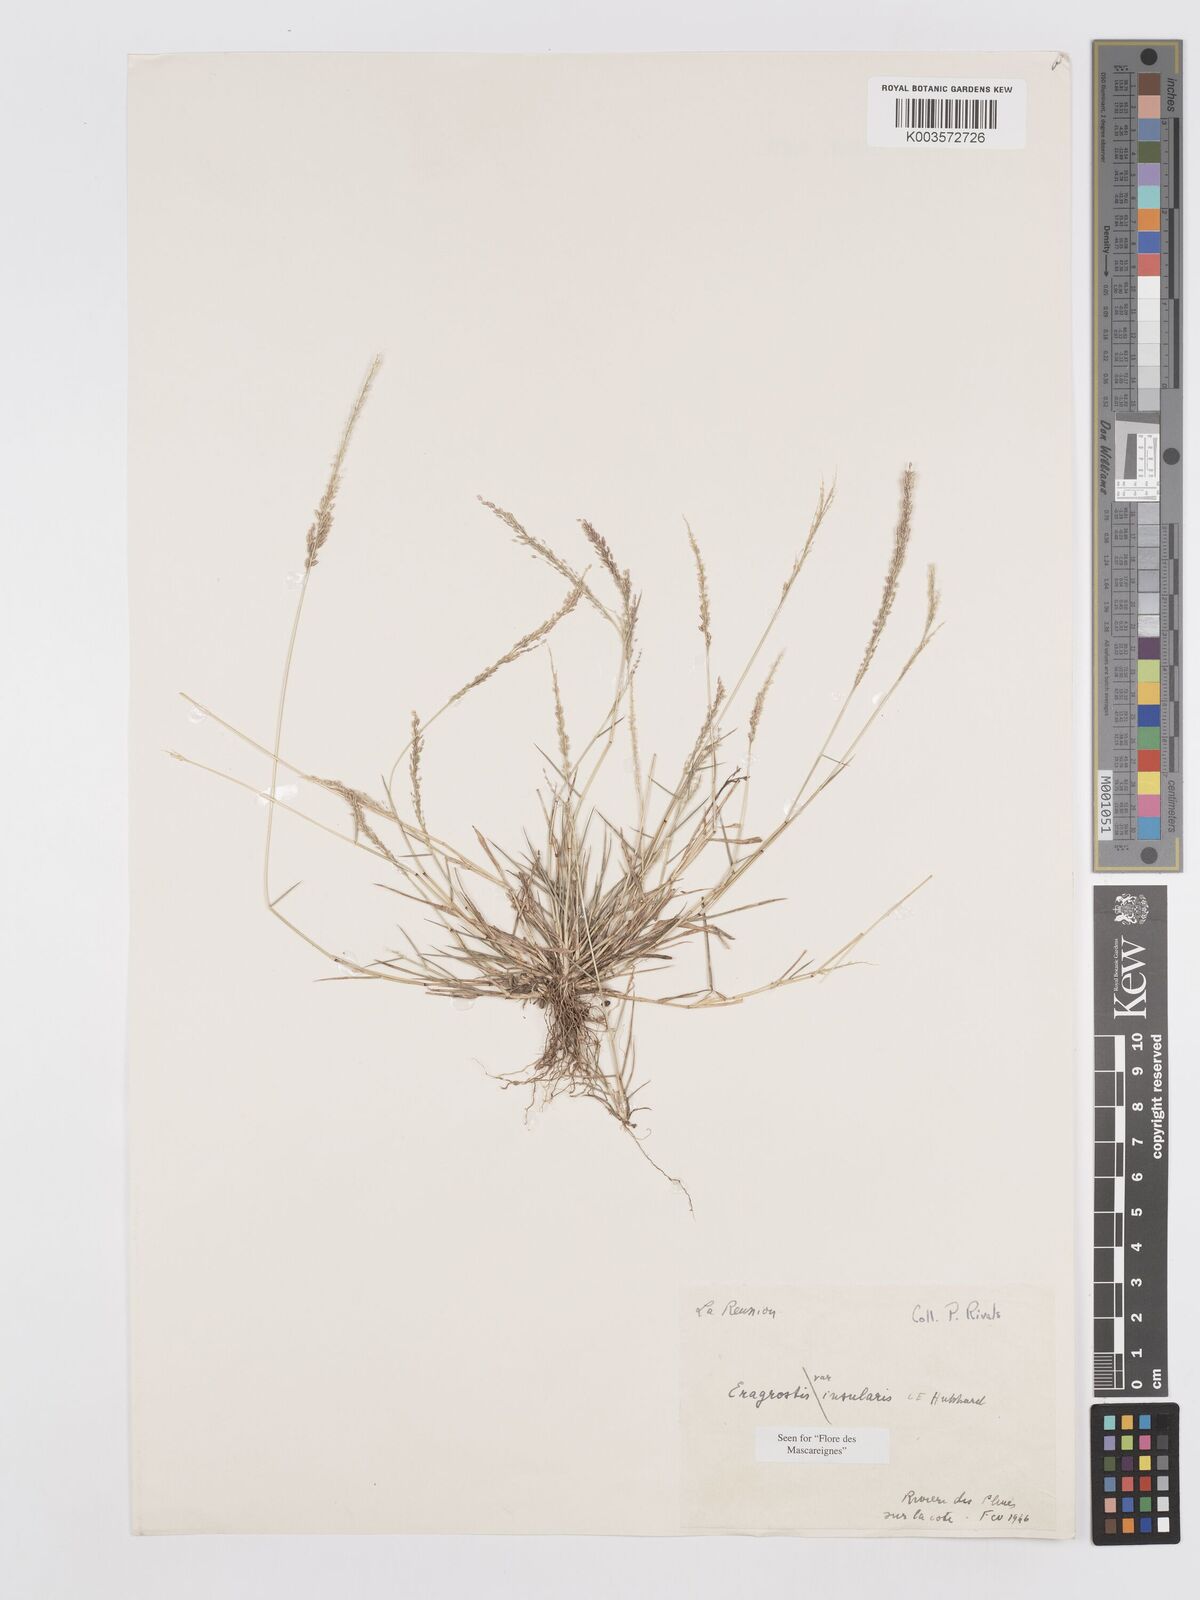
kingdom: Plantae
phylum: Tracheophyta
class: Liliopsida
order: Poales
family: Poaceae
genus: Eragrostis
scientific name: Eragrostis tenella
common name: Japanese lovegrass
